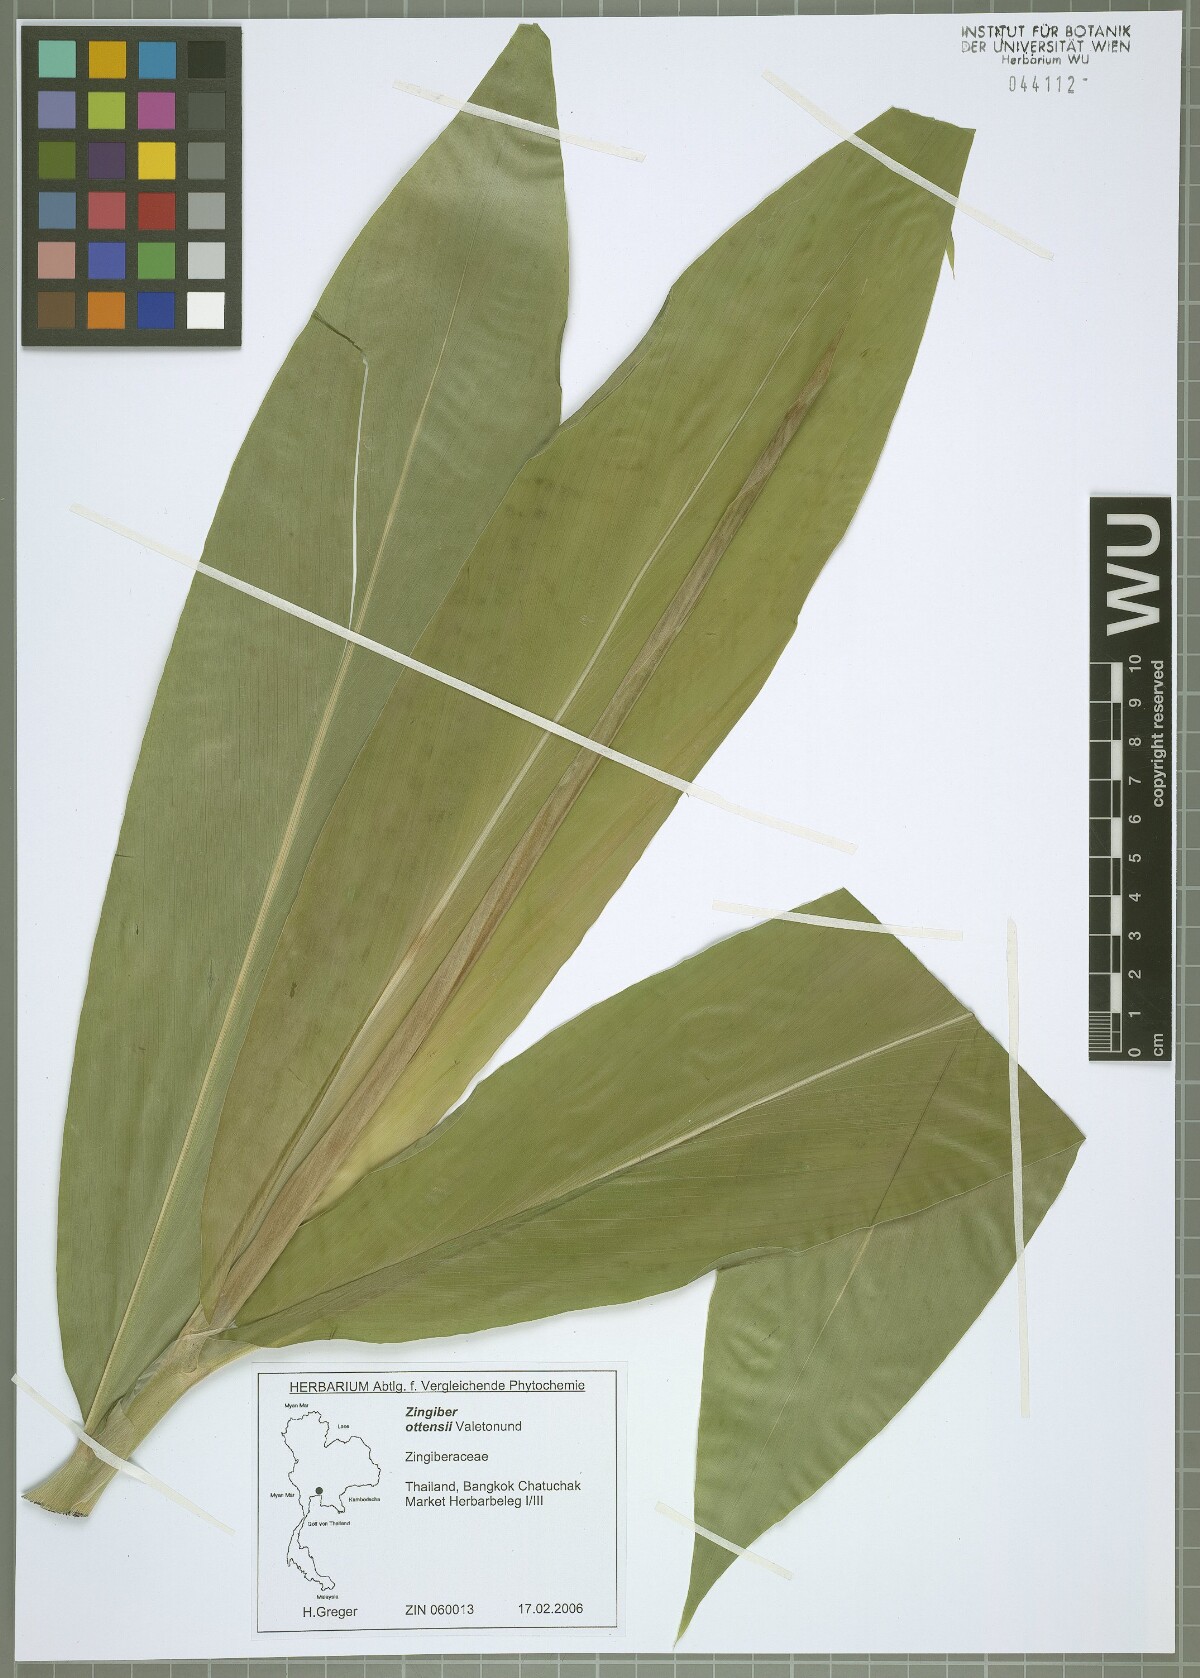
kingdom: Plantae
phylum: Tracheophyta
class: Liliopsida
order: Zingiberales
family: Zingiberaceae
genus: Zingiber
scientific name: Zingiber ottensii
